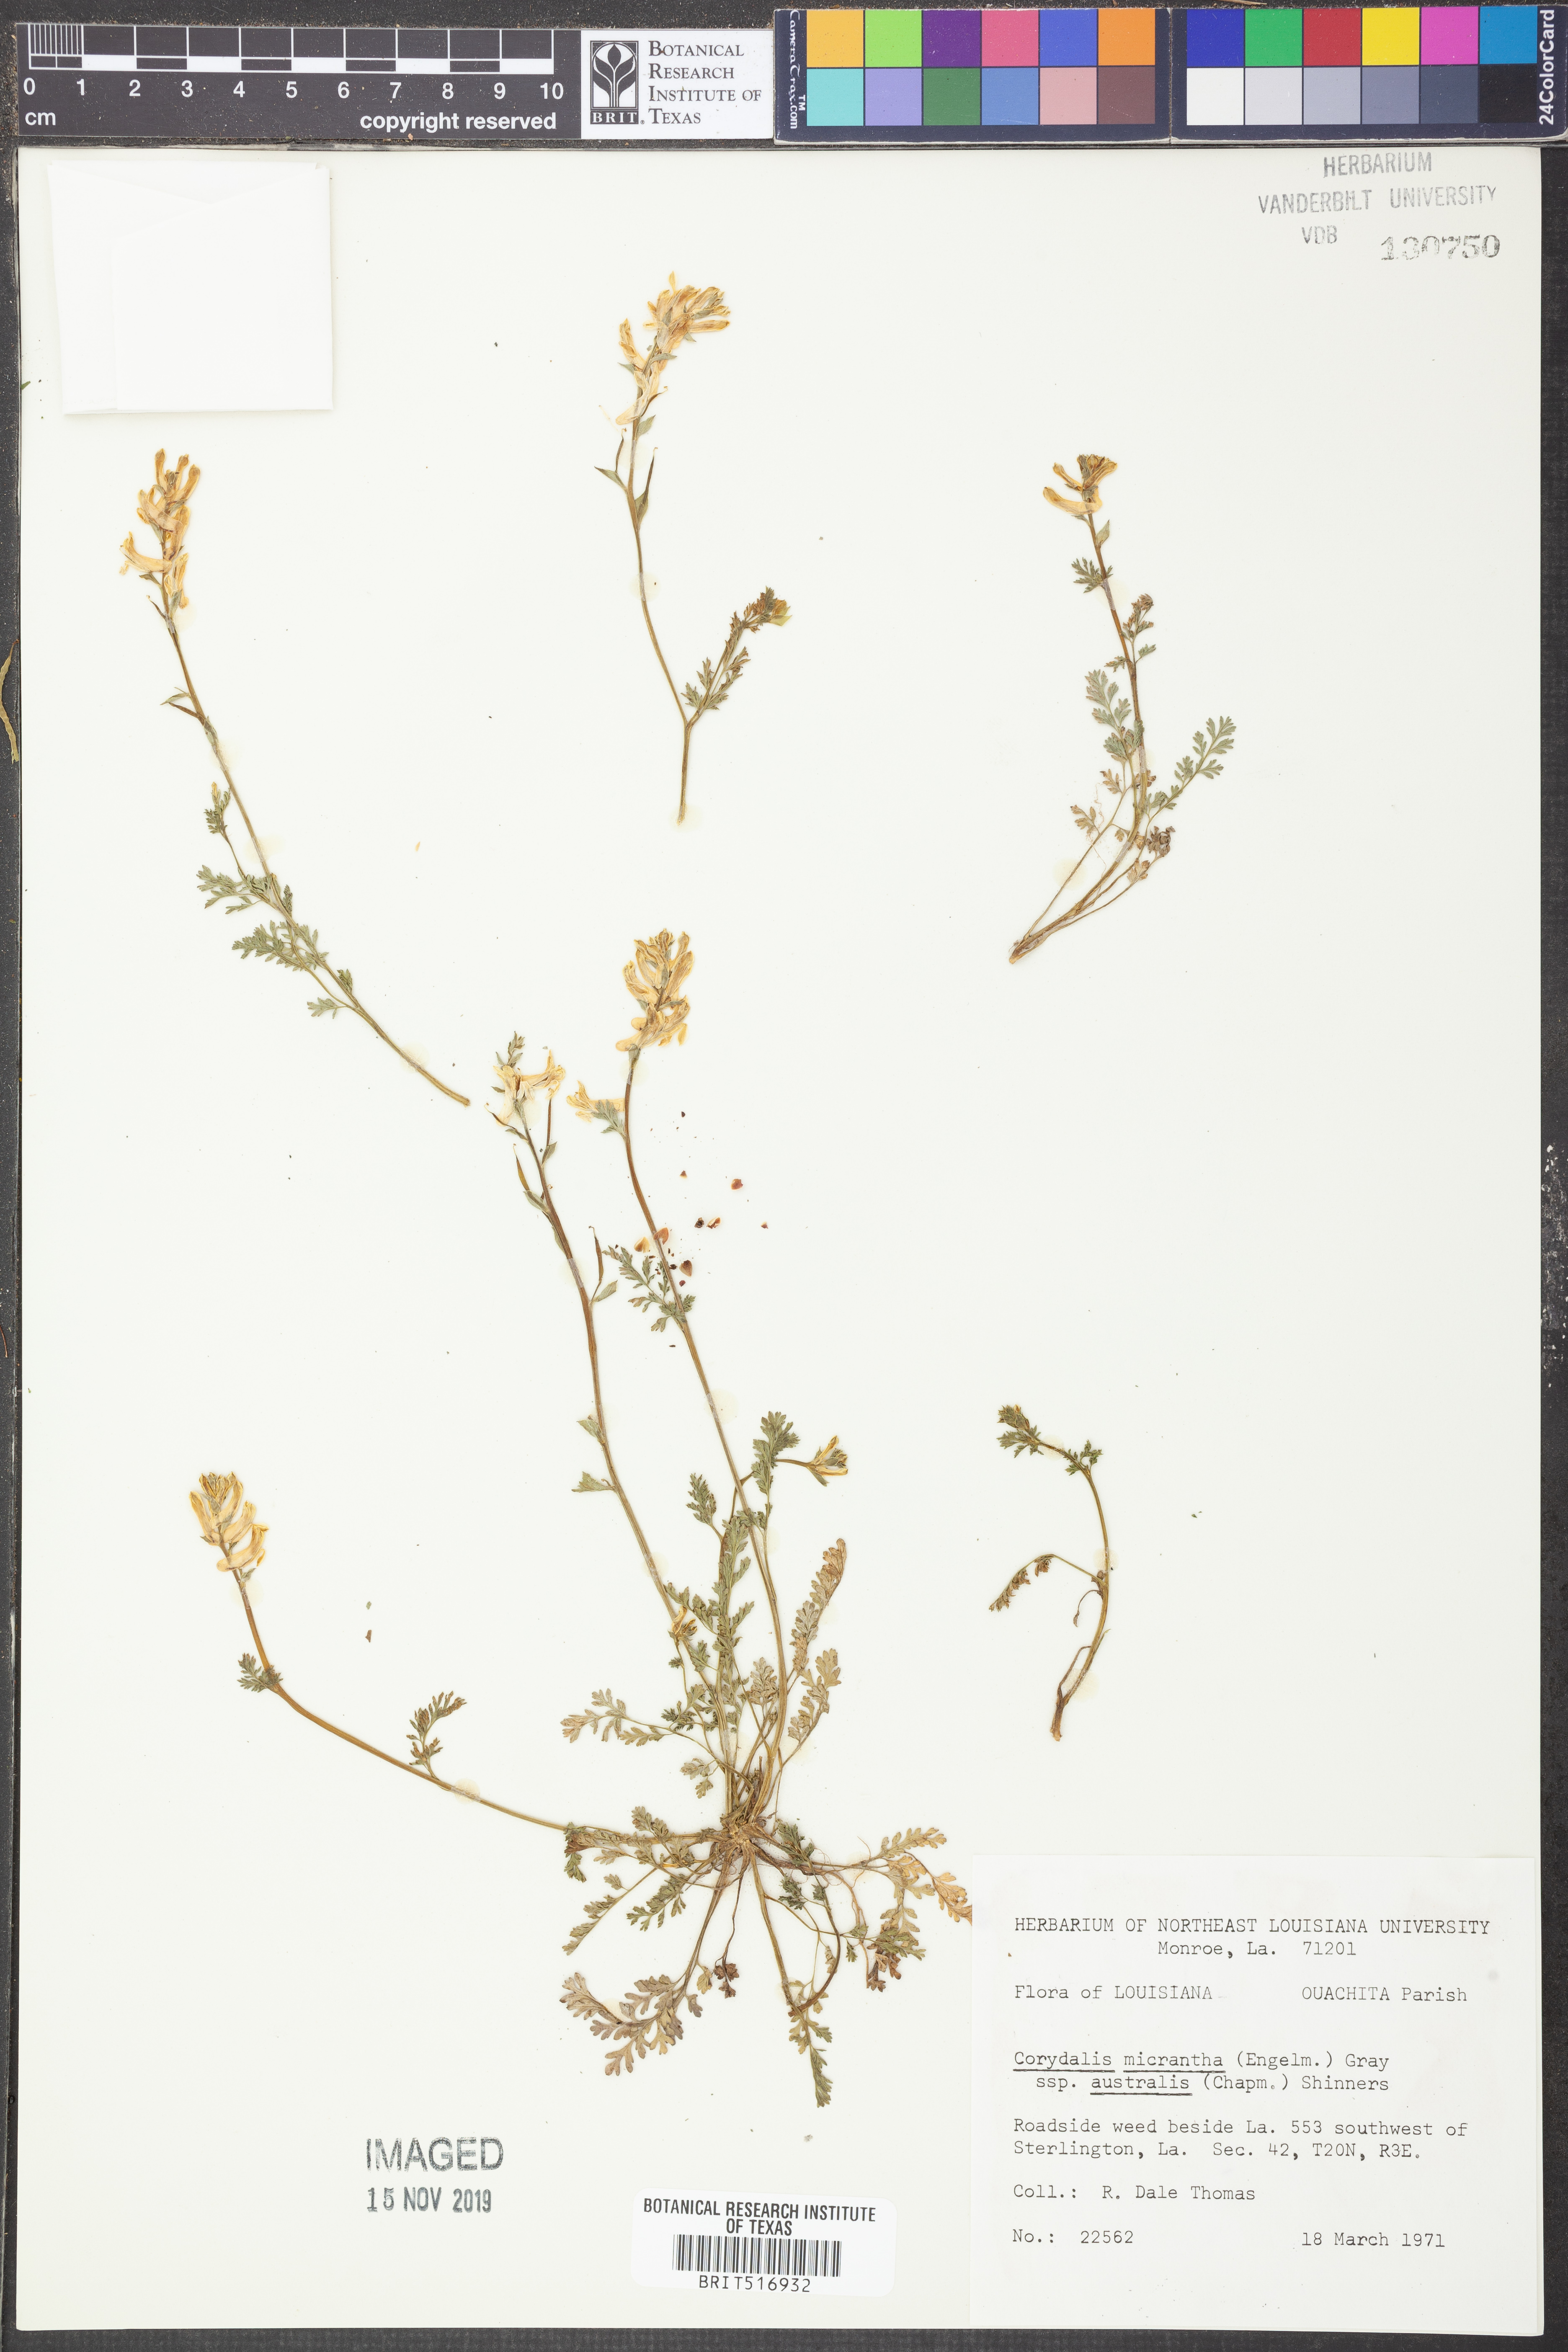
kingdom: Plantae
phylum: Tracheophyta
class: Magnoliopsida
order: Ranunculales
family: Papaveraceae
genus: Corydalis
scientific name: Corydalis micrantha
